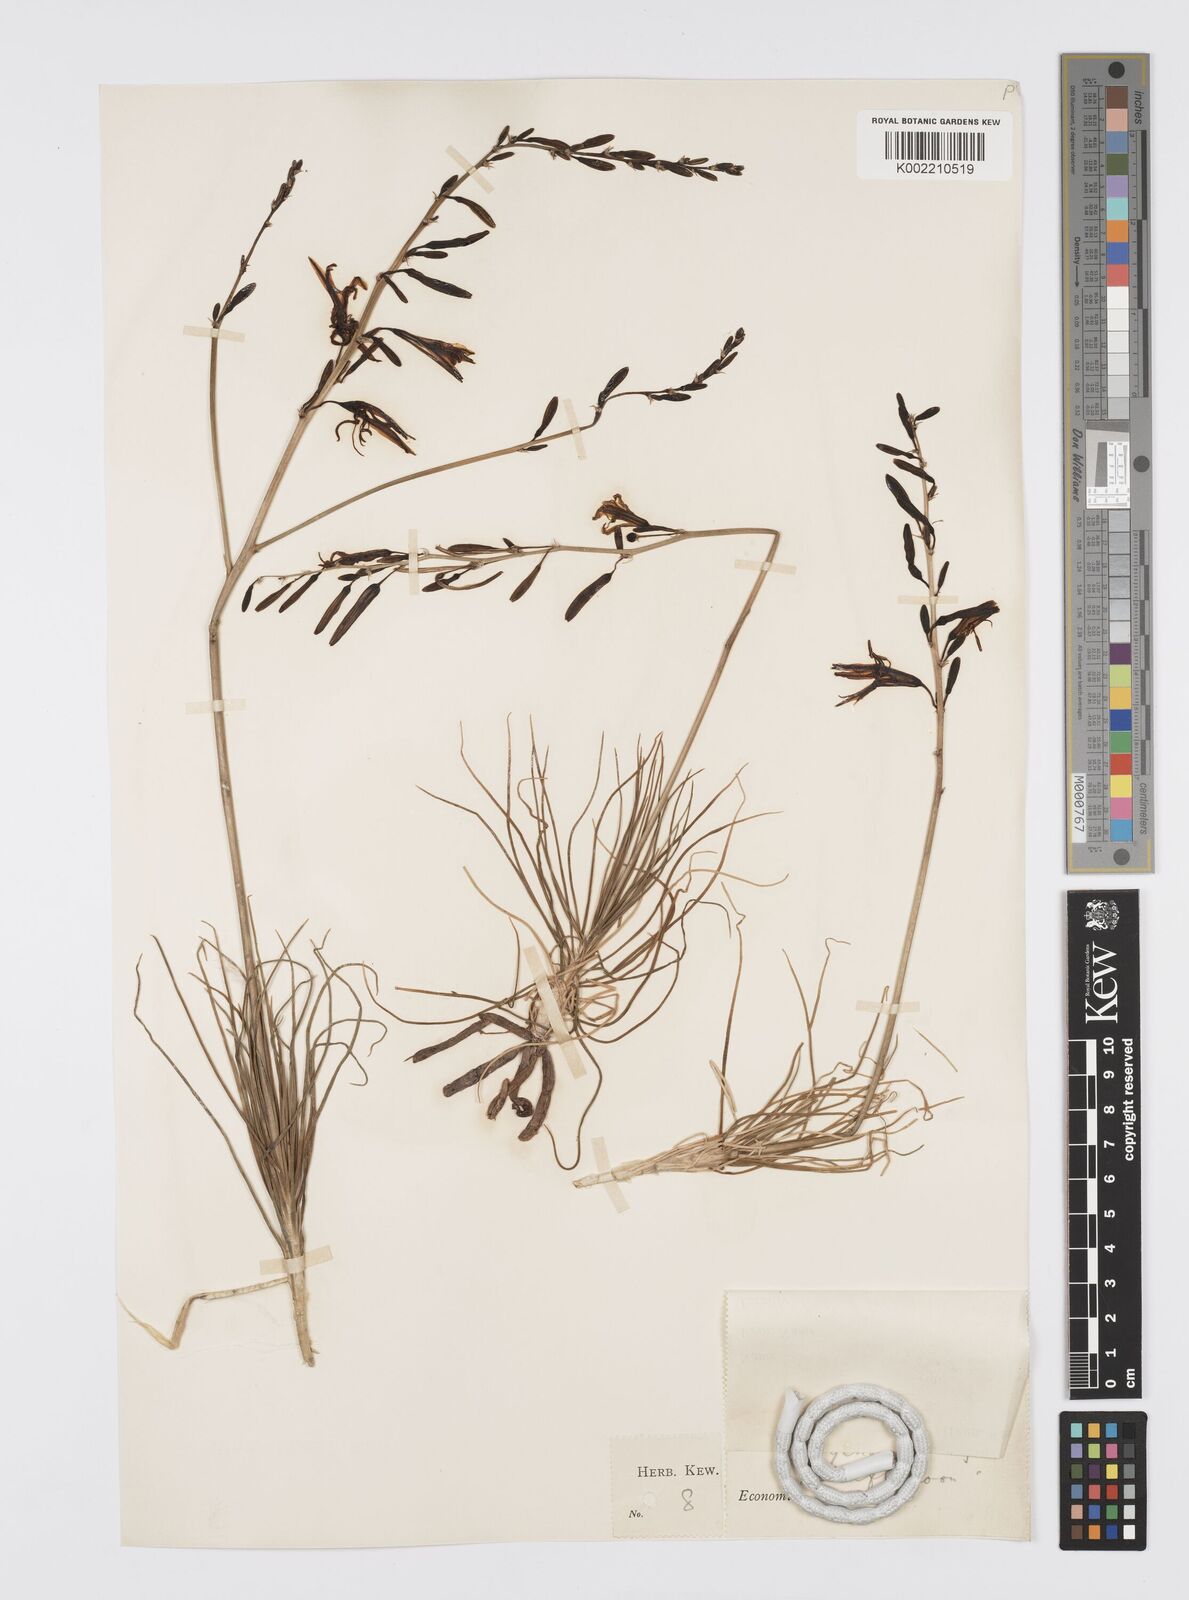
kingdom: Plantae
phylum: Tracheophyta
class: Liliopsida
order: Asparagales
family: Asphodelaceae
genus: Asphodeline
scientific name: Asphodeline liburnica
